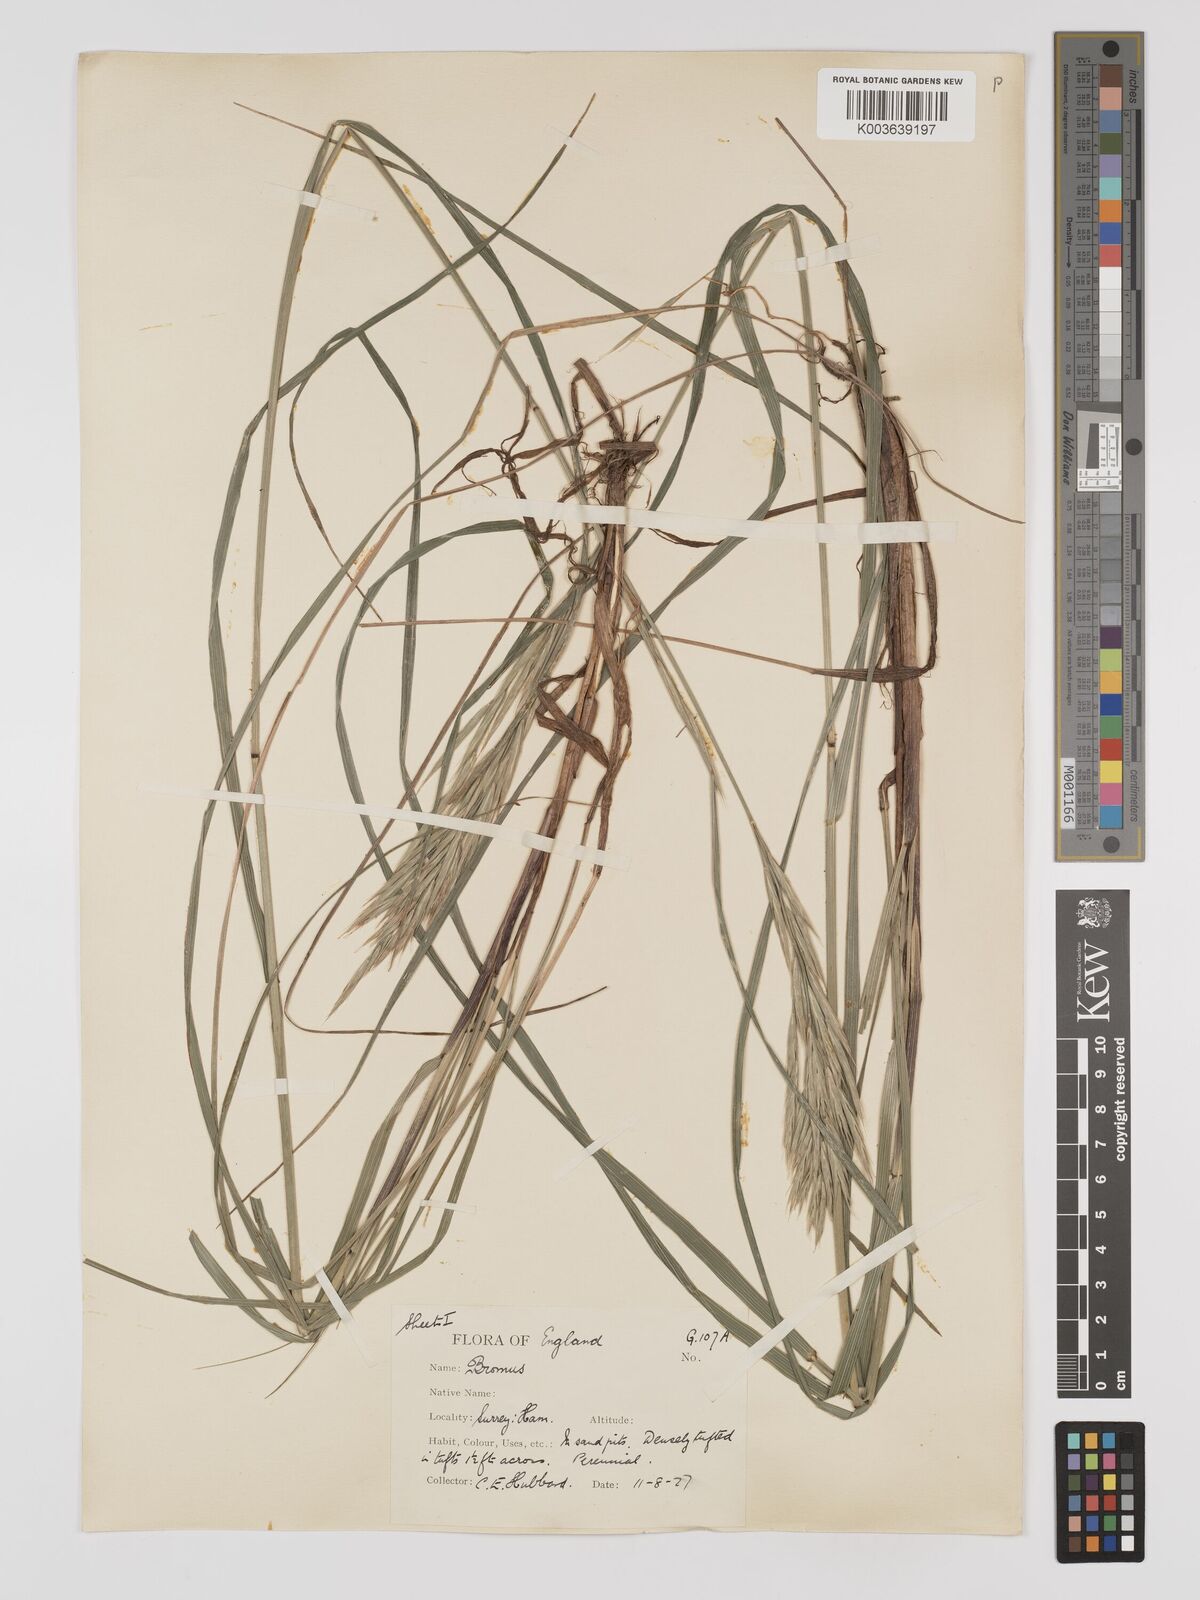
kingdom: Plantae
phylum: Tracheophyta
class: Liliopsida
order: Poales
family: Poaceae
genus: Bromus
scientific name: Bromus erectus
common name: Erect brome
